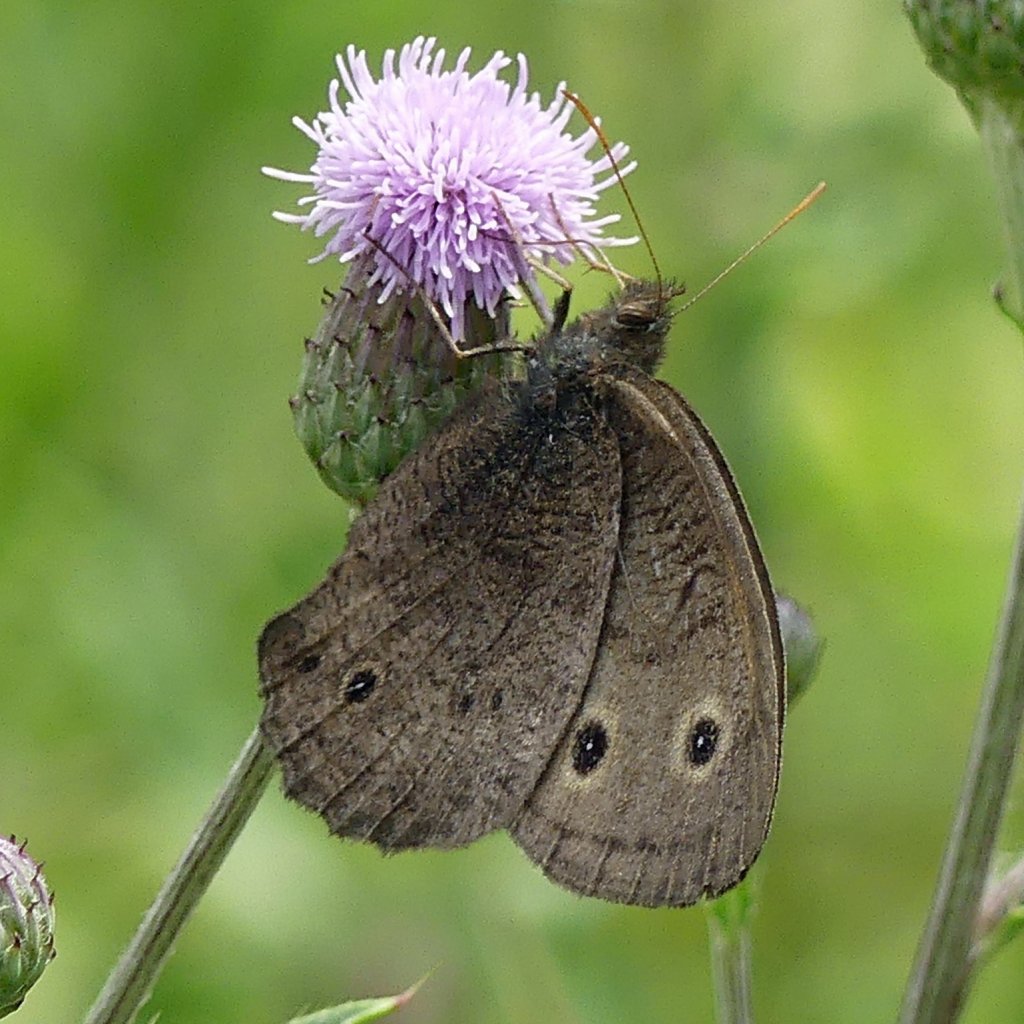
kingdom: Animalia
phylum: Arthropoda
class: Insecta
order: Lepidoptera
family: Nymphalidae
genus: Cercyonis
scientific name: Cercyonis pegala
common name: Common Wood-Nymph
